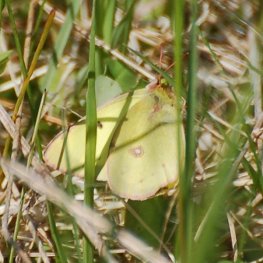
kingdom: Animalia
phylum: Arthropoda
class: Insecta
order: Lepidoptera
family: Pieridae
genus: Colias
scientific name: Colias philodice
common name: Clouded Sulphur
